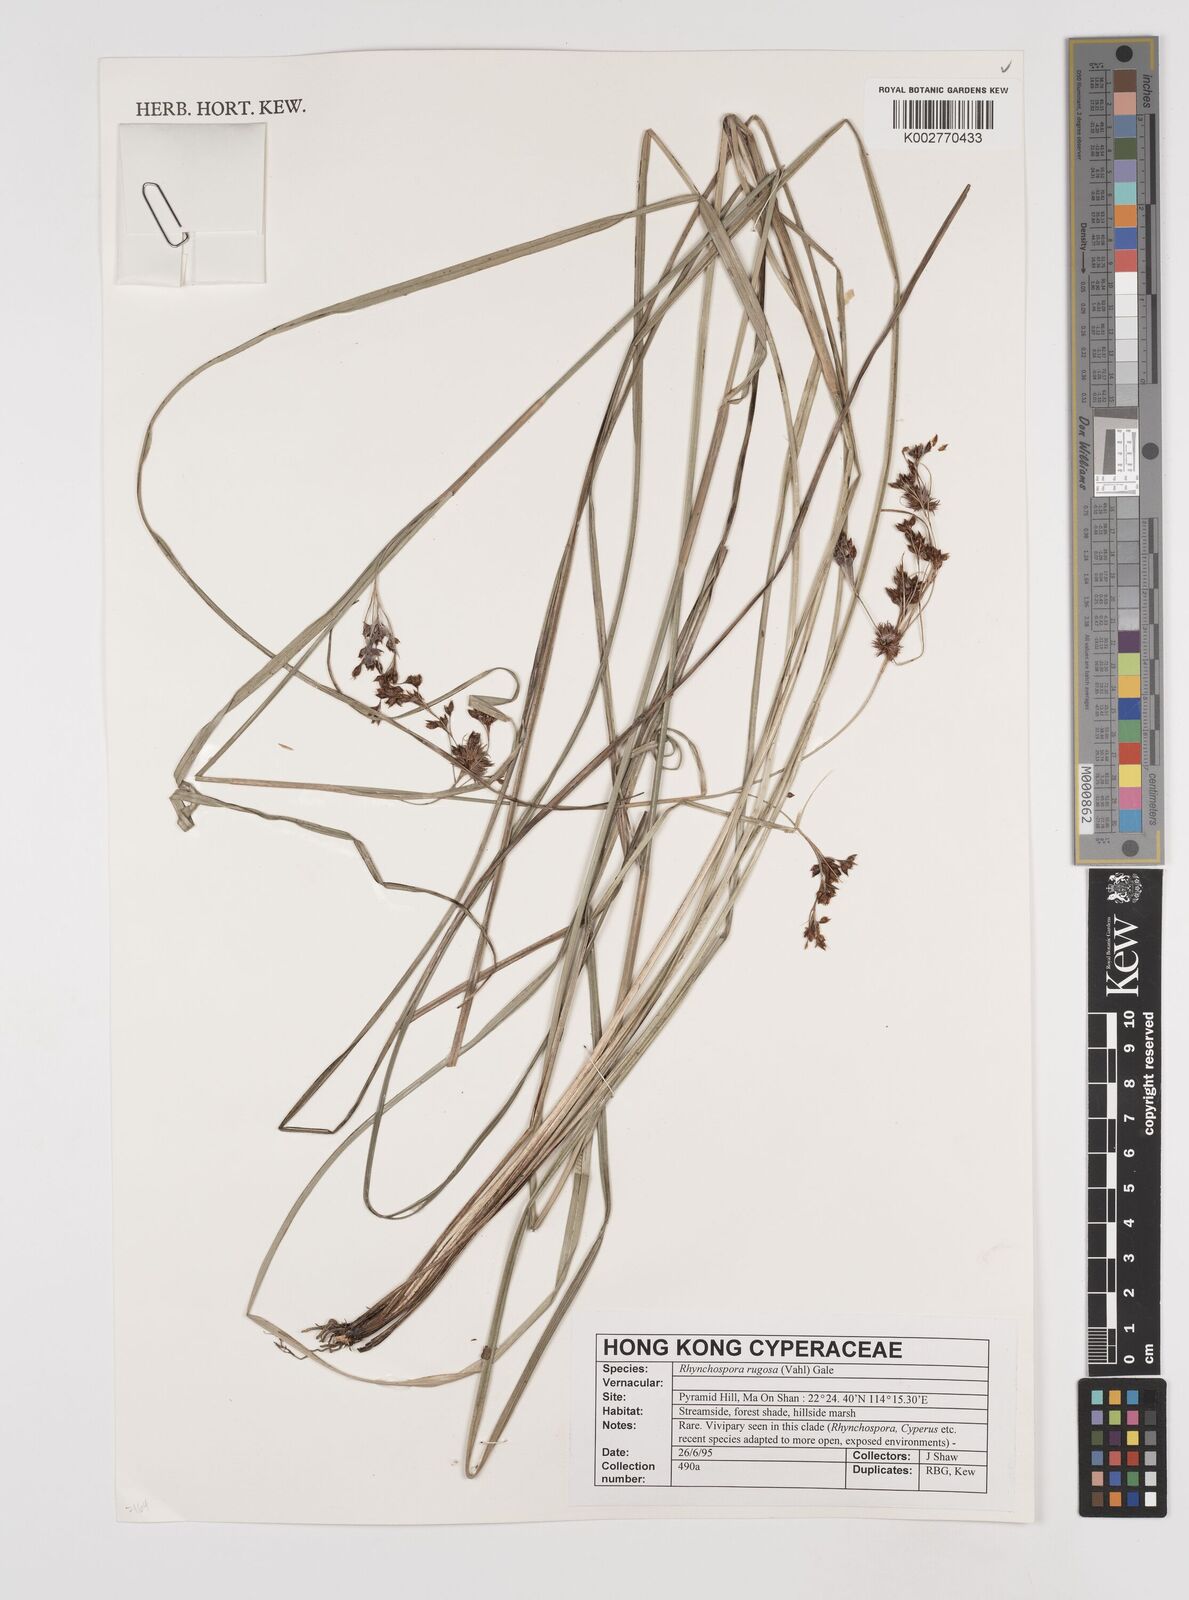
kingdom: Plantae
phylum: Tracheophyta
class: Liliopsida
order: Poales
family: Cyperaceae
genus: Rhynchospora
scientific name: Rhynchospora rugosa
